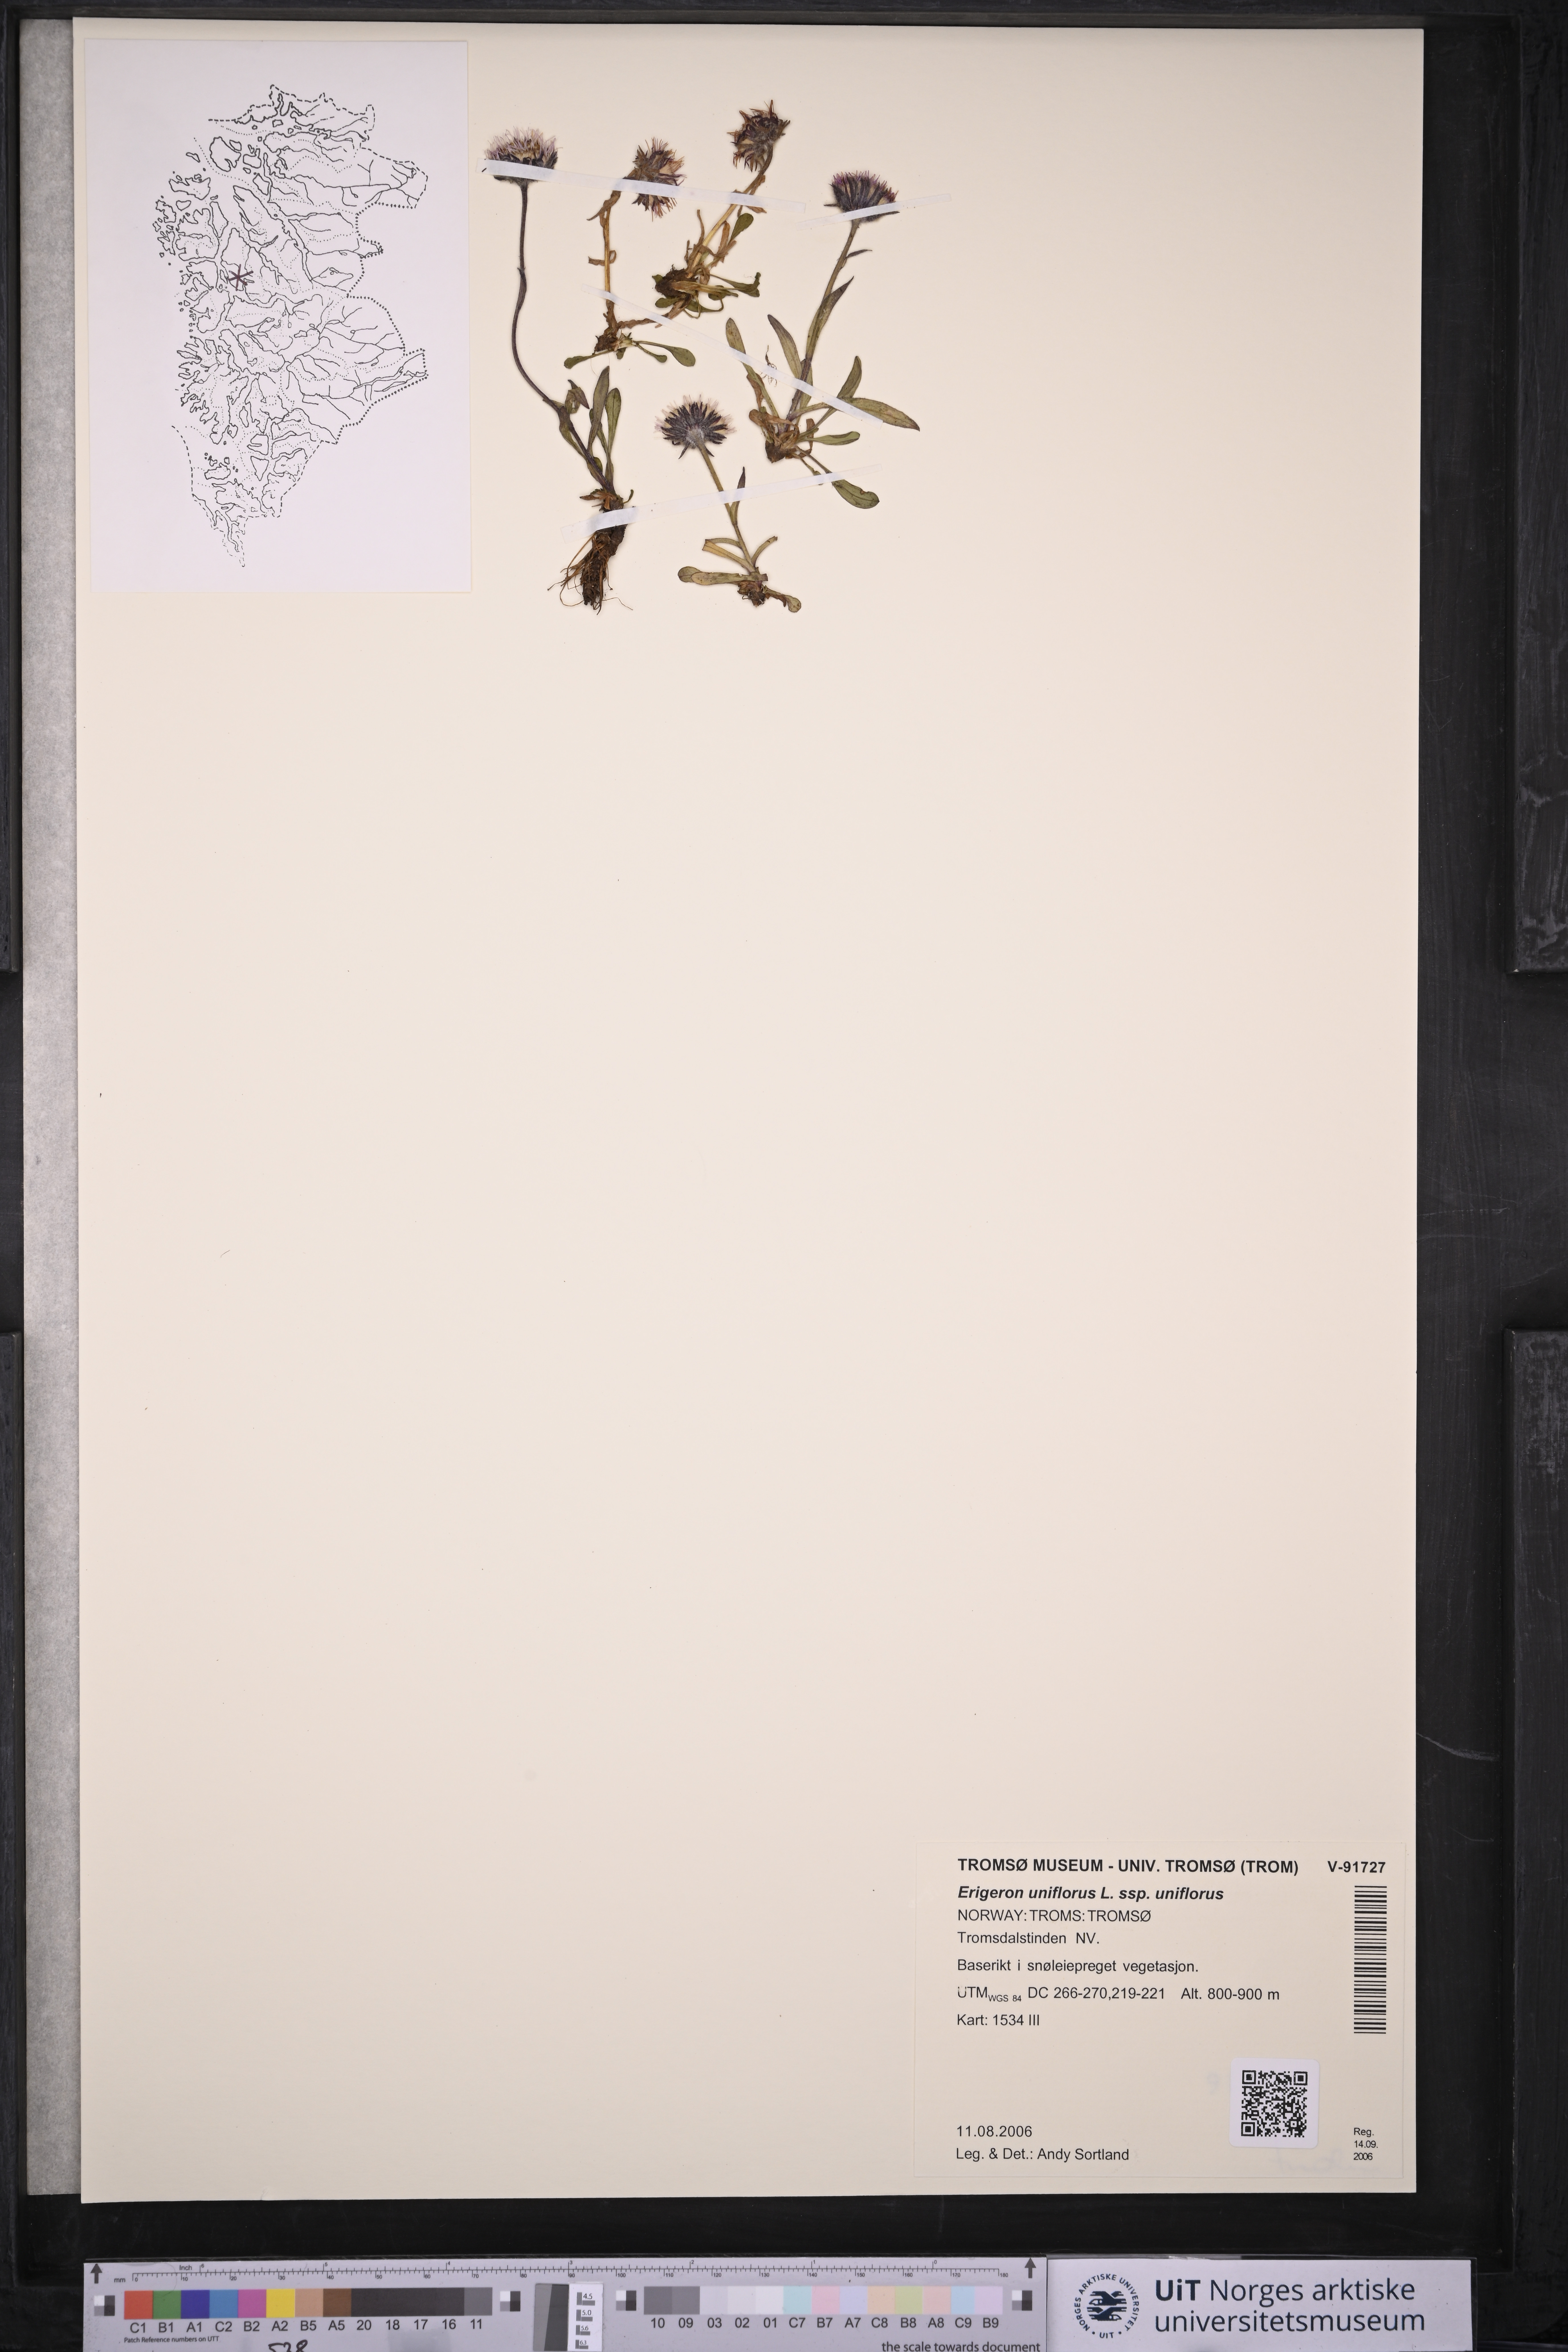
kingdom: Plantae
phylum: Tracheophyta
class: Magnoliopsida
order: Asterales
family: Asteraceae
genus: Erigeron
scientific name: Erigeron uniflorus
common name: Northern daisy
